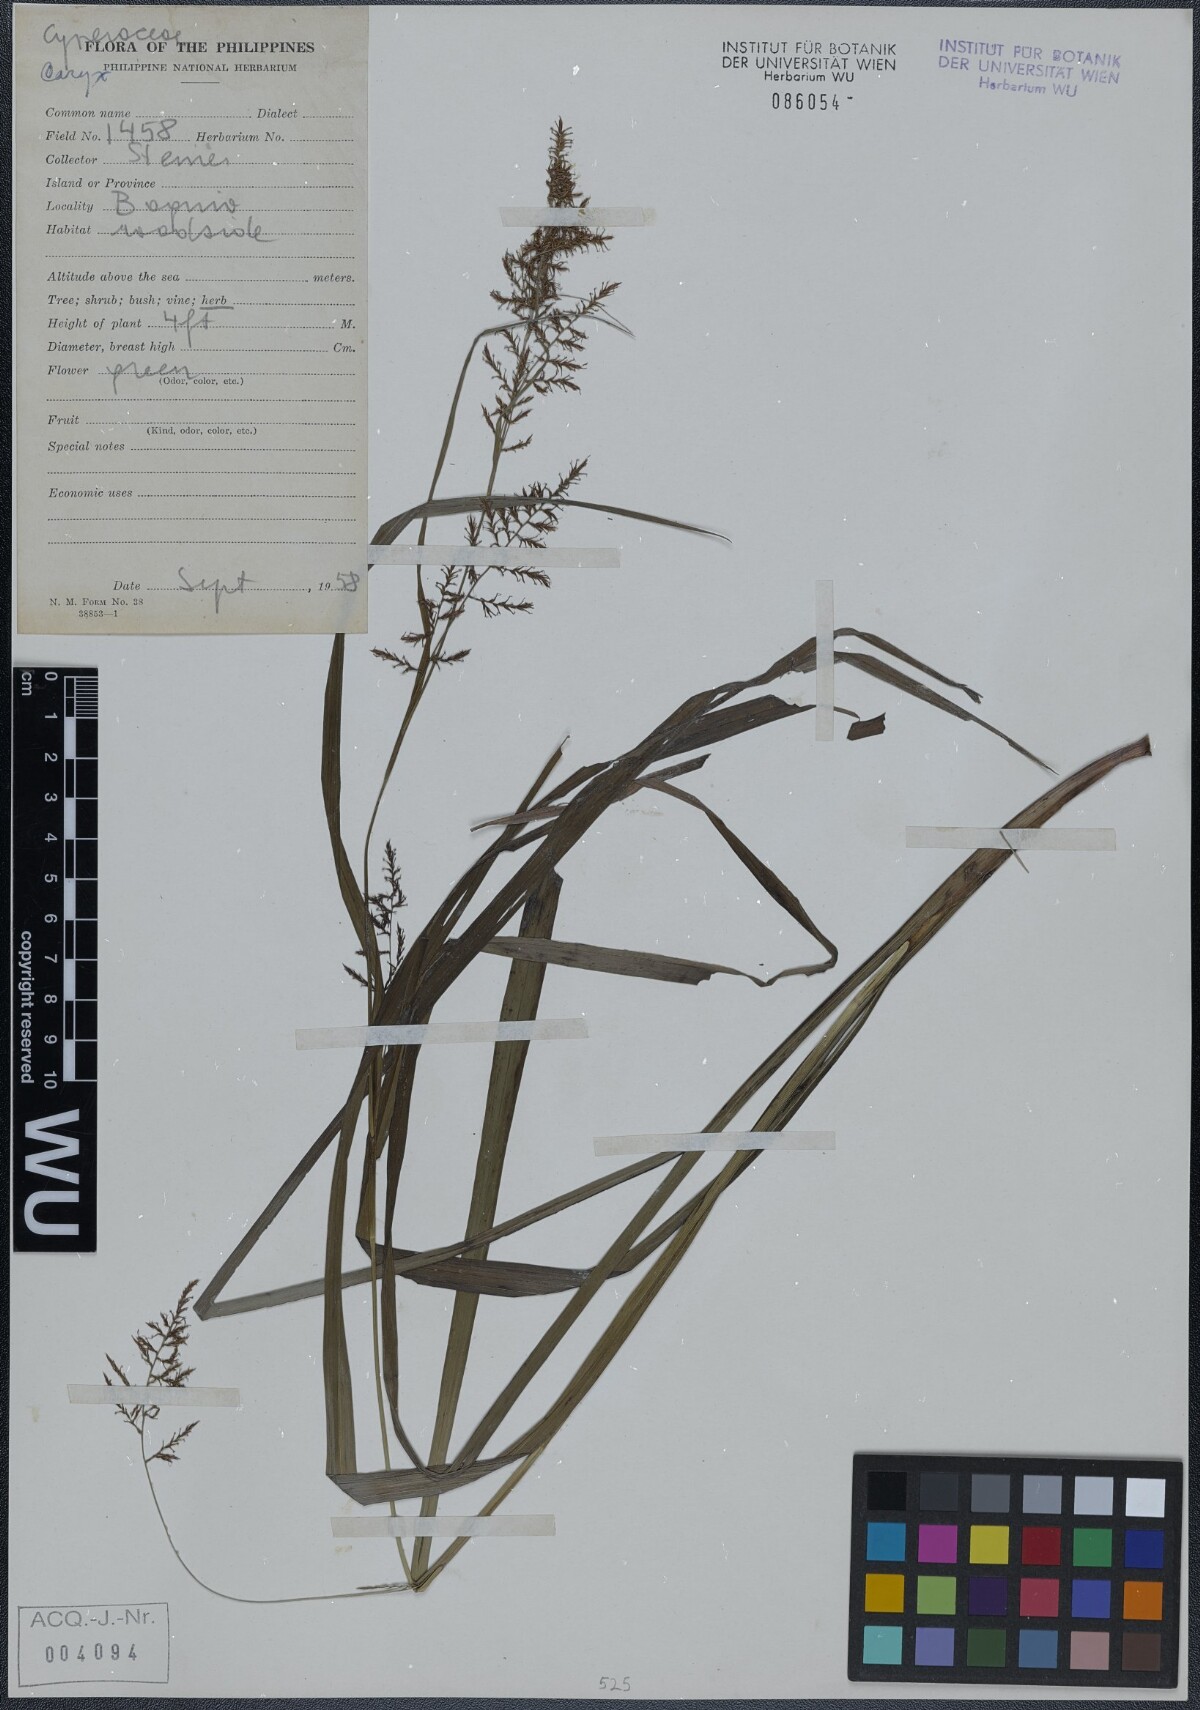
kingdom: Plantae
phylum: Tracheophyta
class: Liliopsida
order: Poales
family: Cyperaceae
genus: Carex
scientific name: Carex
